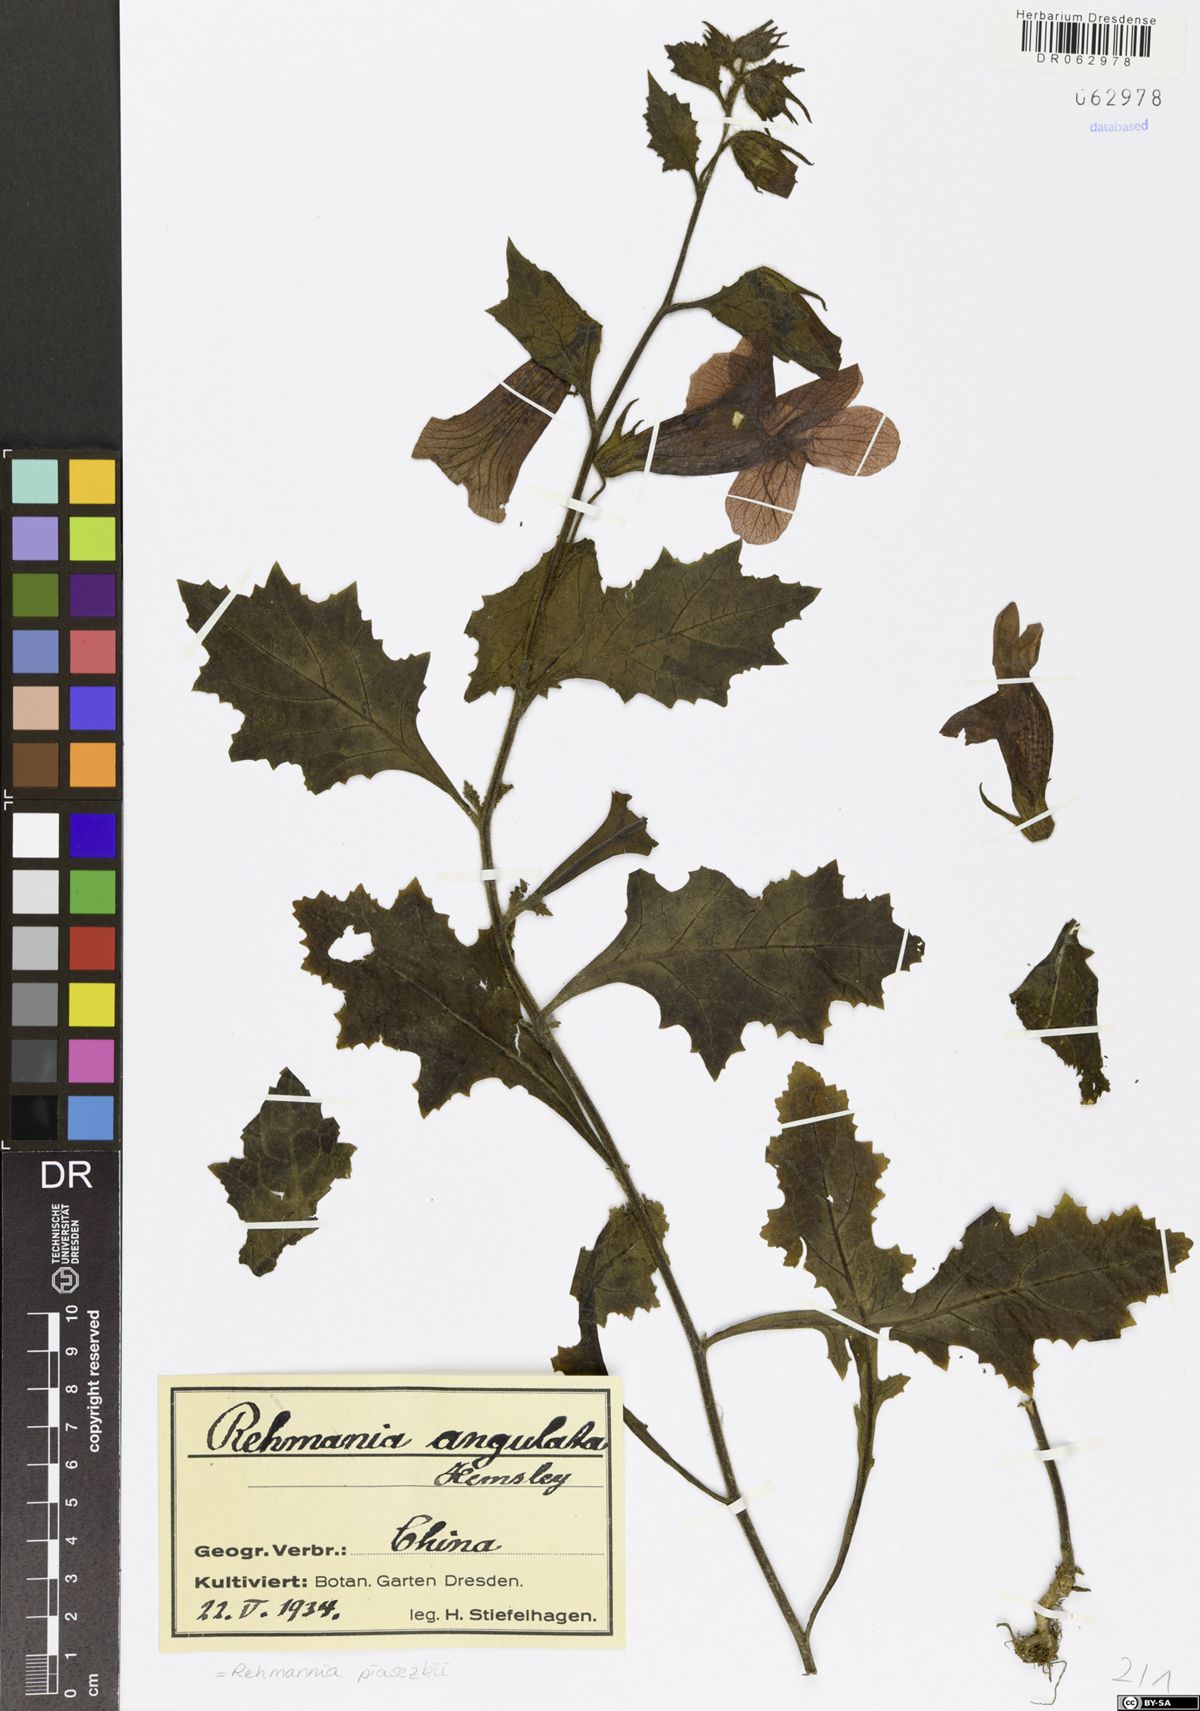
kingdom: Plantae
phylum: Tracheophyta
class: Magnoliopsida
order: Lamiales
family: Rehmanniaceae
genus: Rehmannia
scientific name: Rehmannia piasezkii
